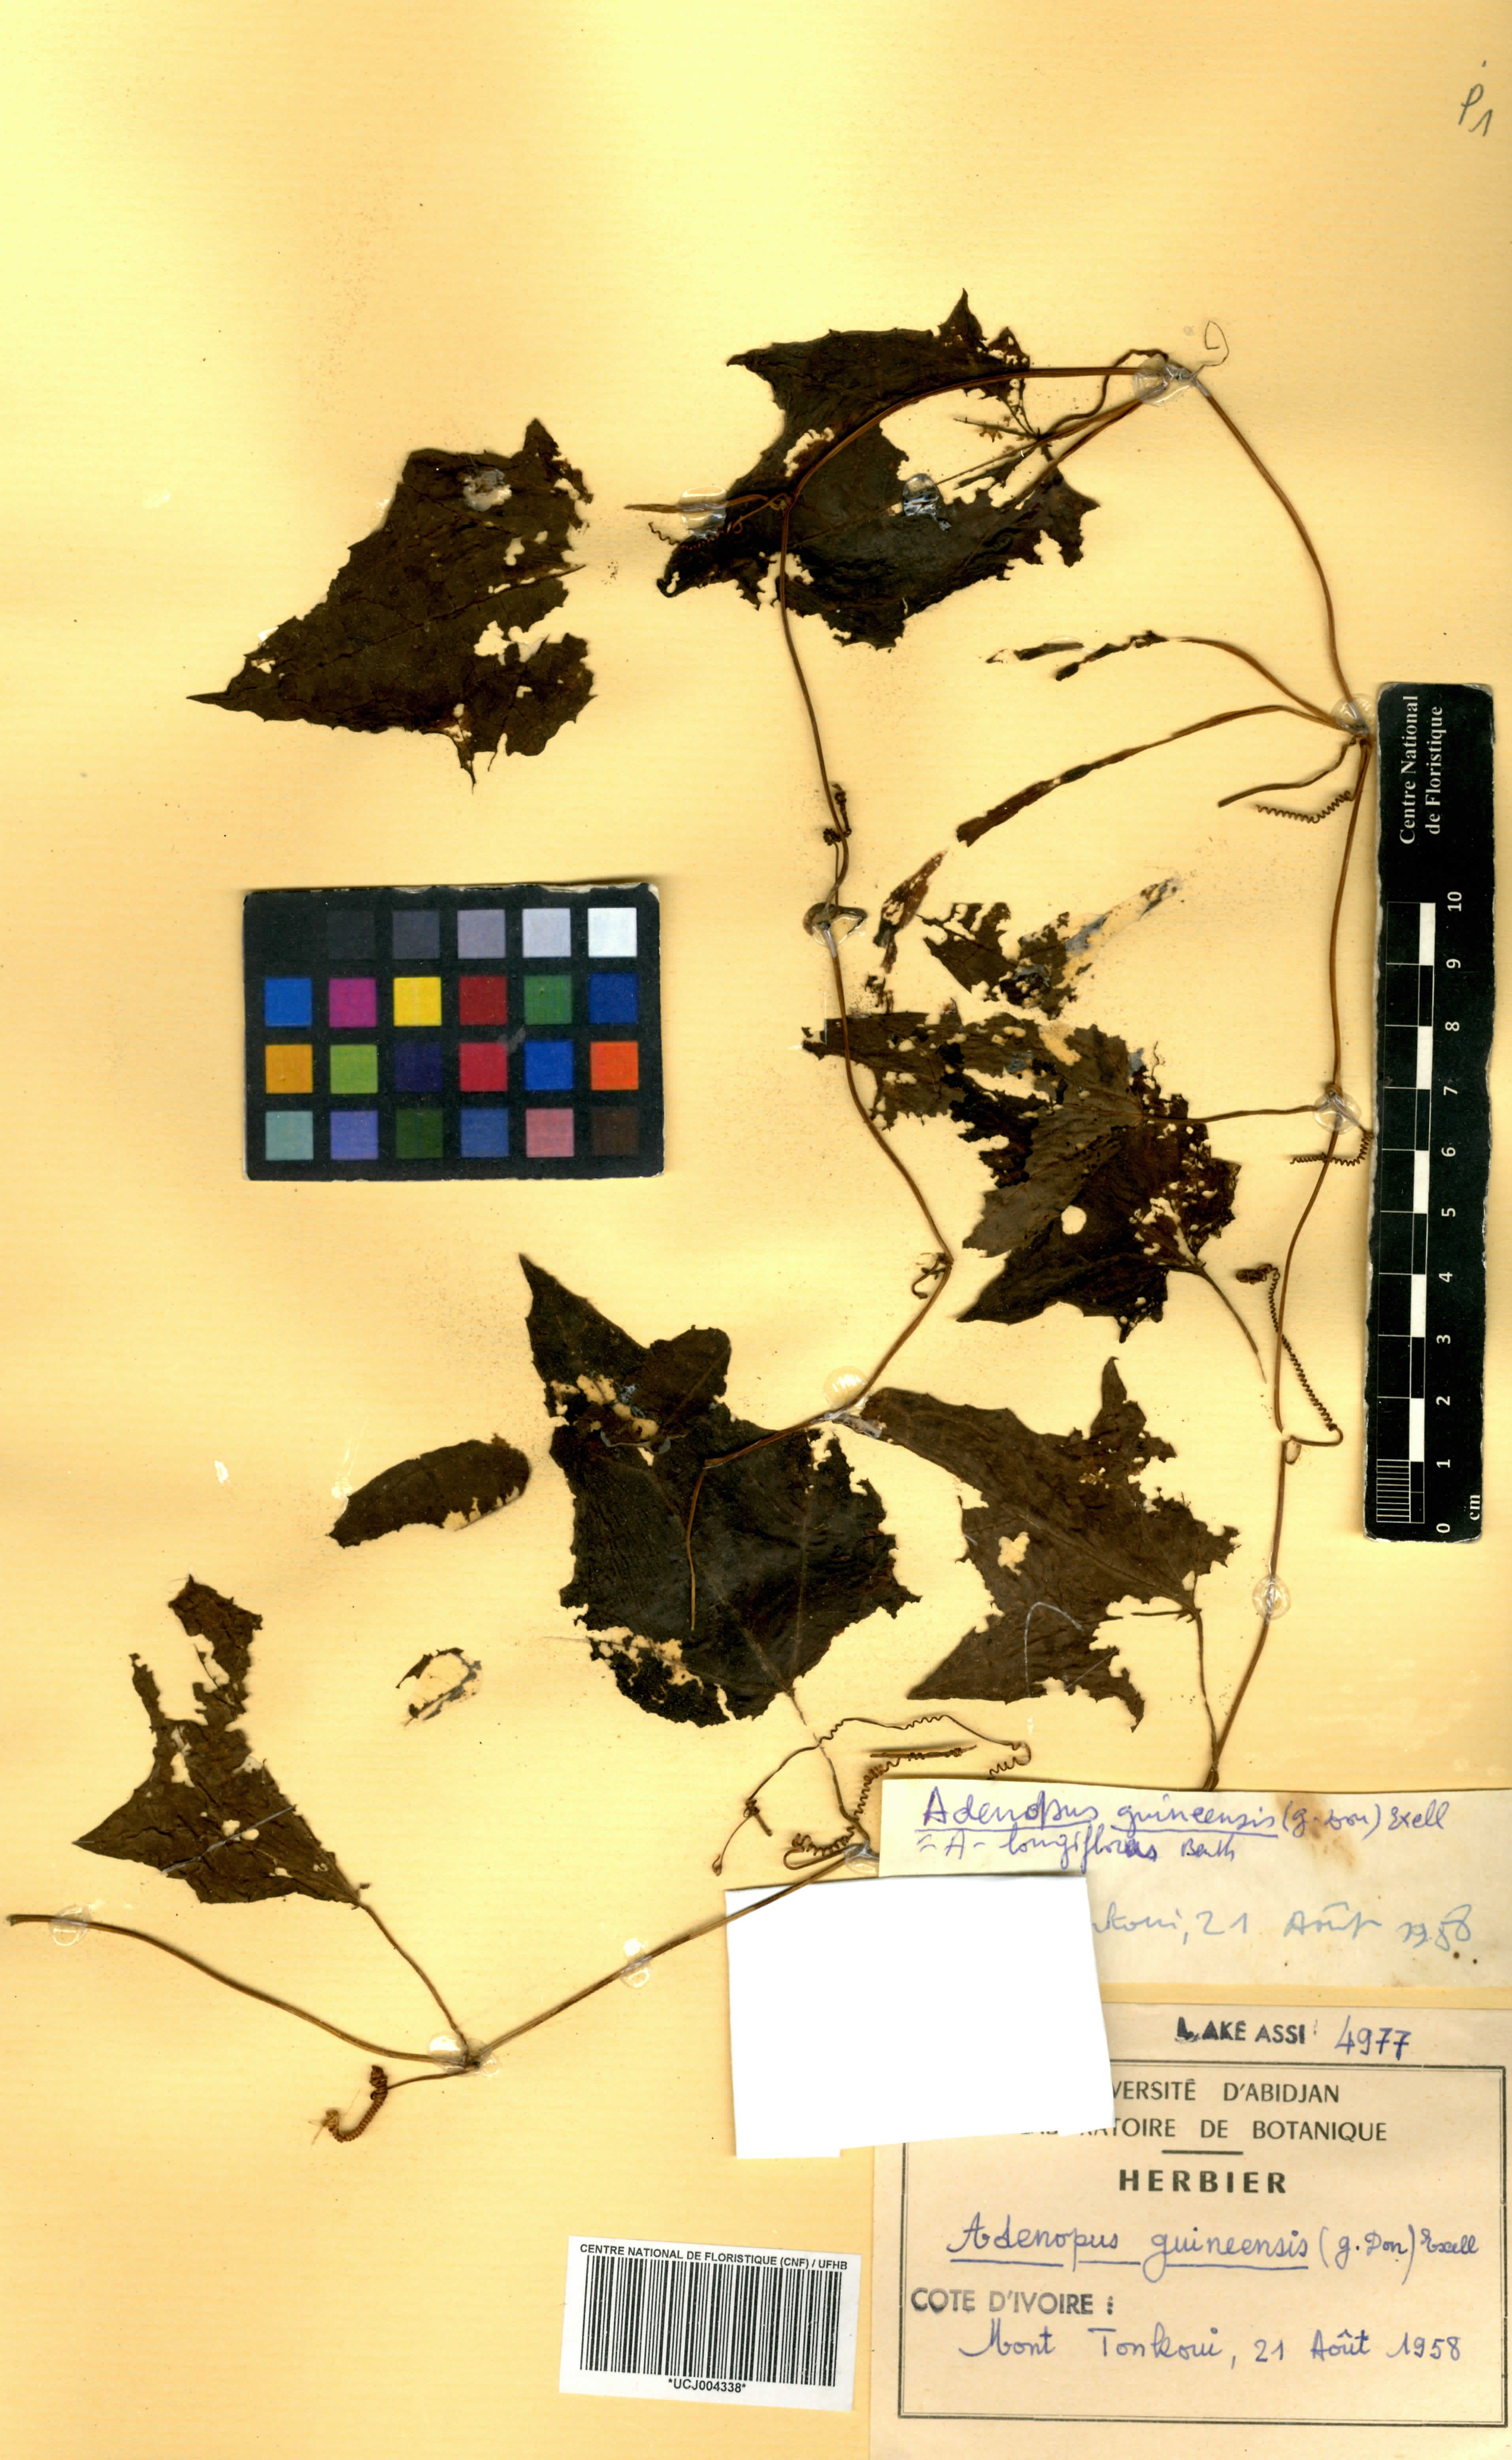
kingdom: Plantae
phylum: Tracheophyta
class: Magnoliopsida
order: Cucurbitales
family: Cucurbitaceae
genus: Lagenaria
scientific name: Lagenaria guineensis
